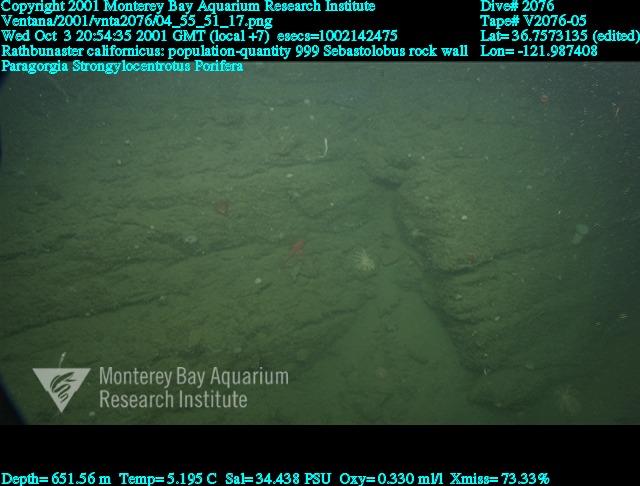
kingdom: Animalia
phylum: Porifera
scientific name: Porifera
